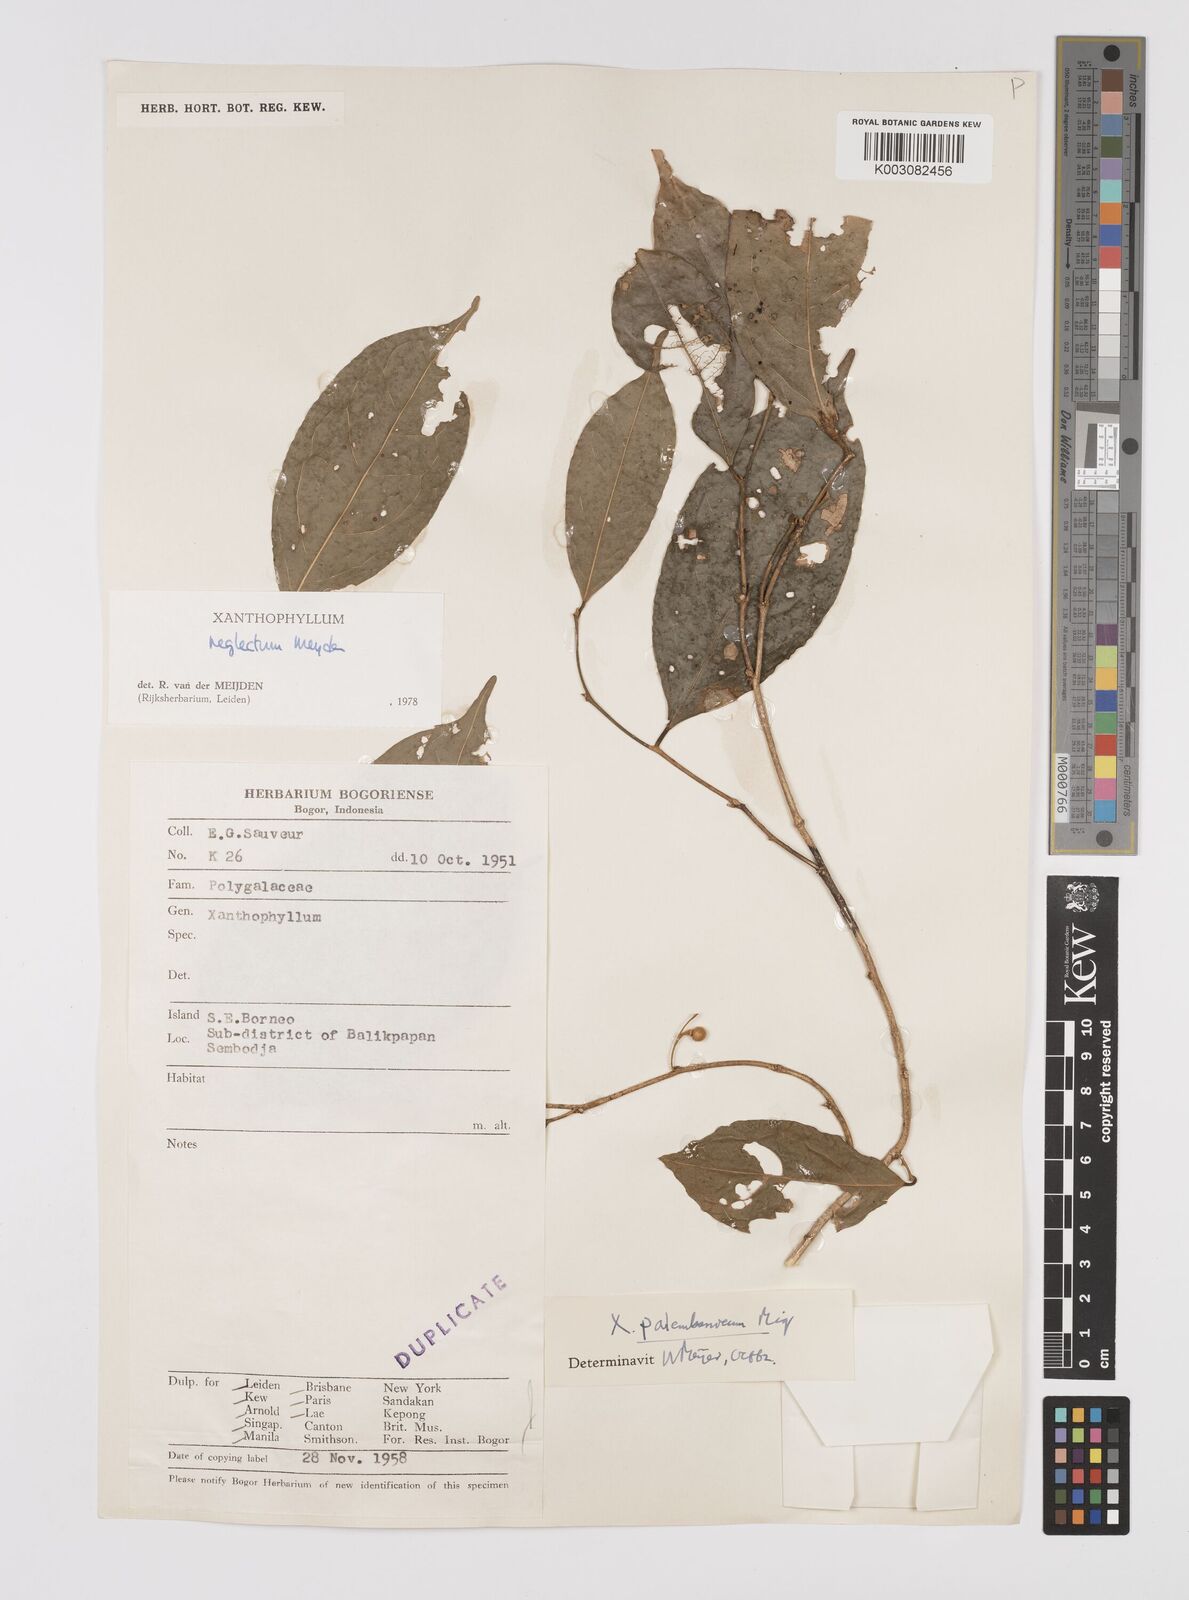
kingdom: Plantae
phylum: Tracheophyta
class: Magnoliopsida
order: Fabales
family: Polygalaceae
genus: Xanthophyllum
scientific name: Xanthophyllum neglectum
